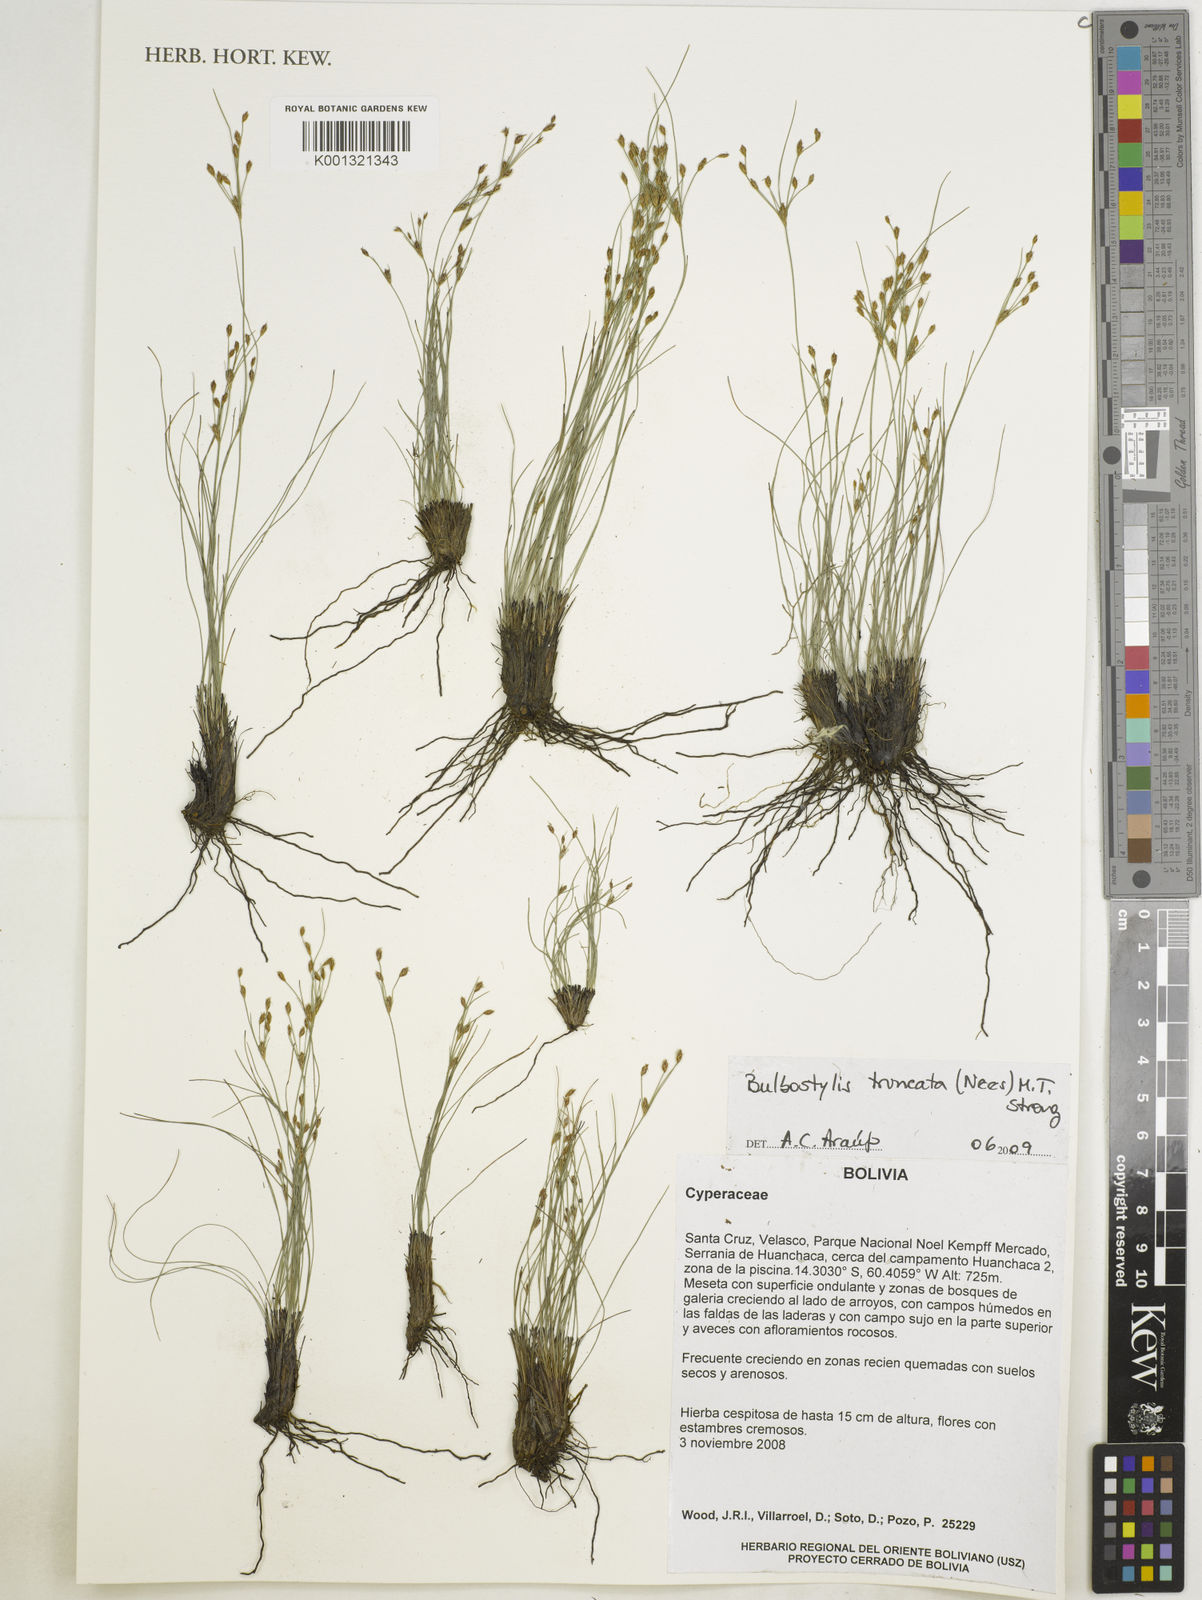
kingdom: Plantae
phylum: Tracheophyta
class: Liliopsida
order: Poales
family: Cyperaceae
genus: Bulbostylis
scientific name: Bulbostylis truncata
